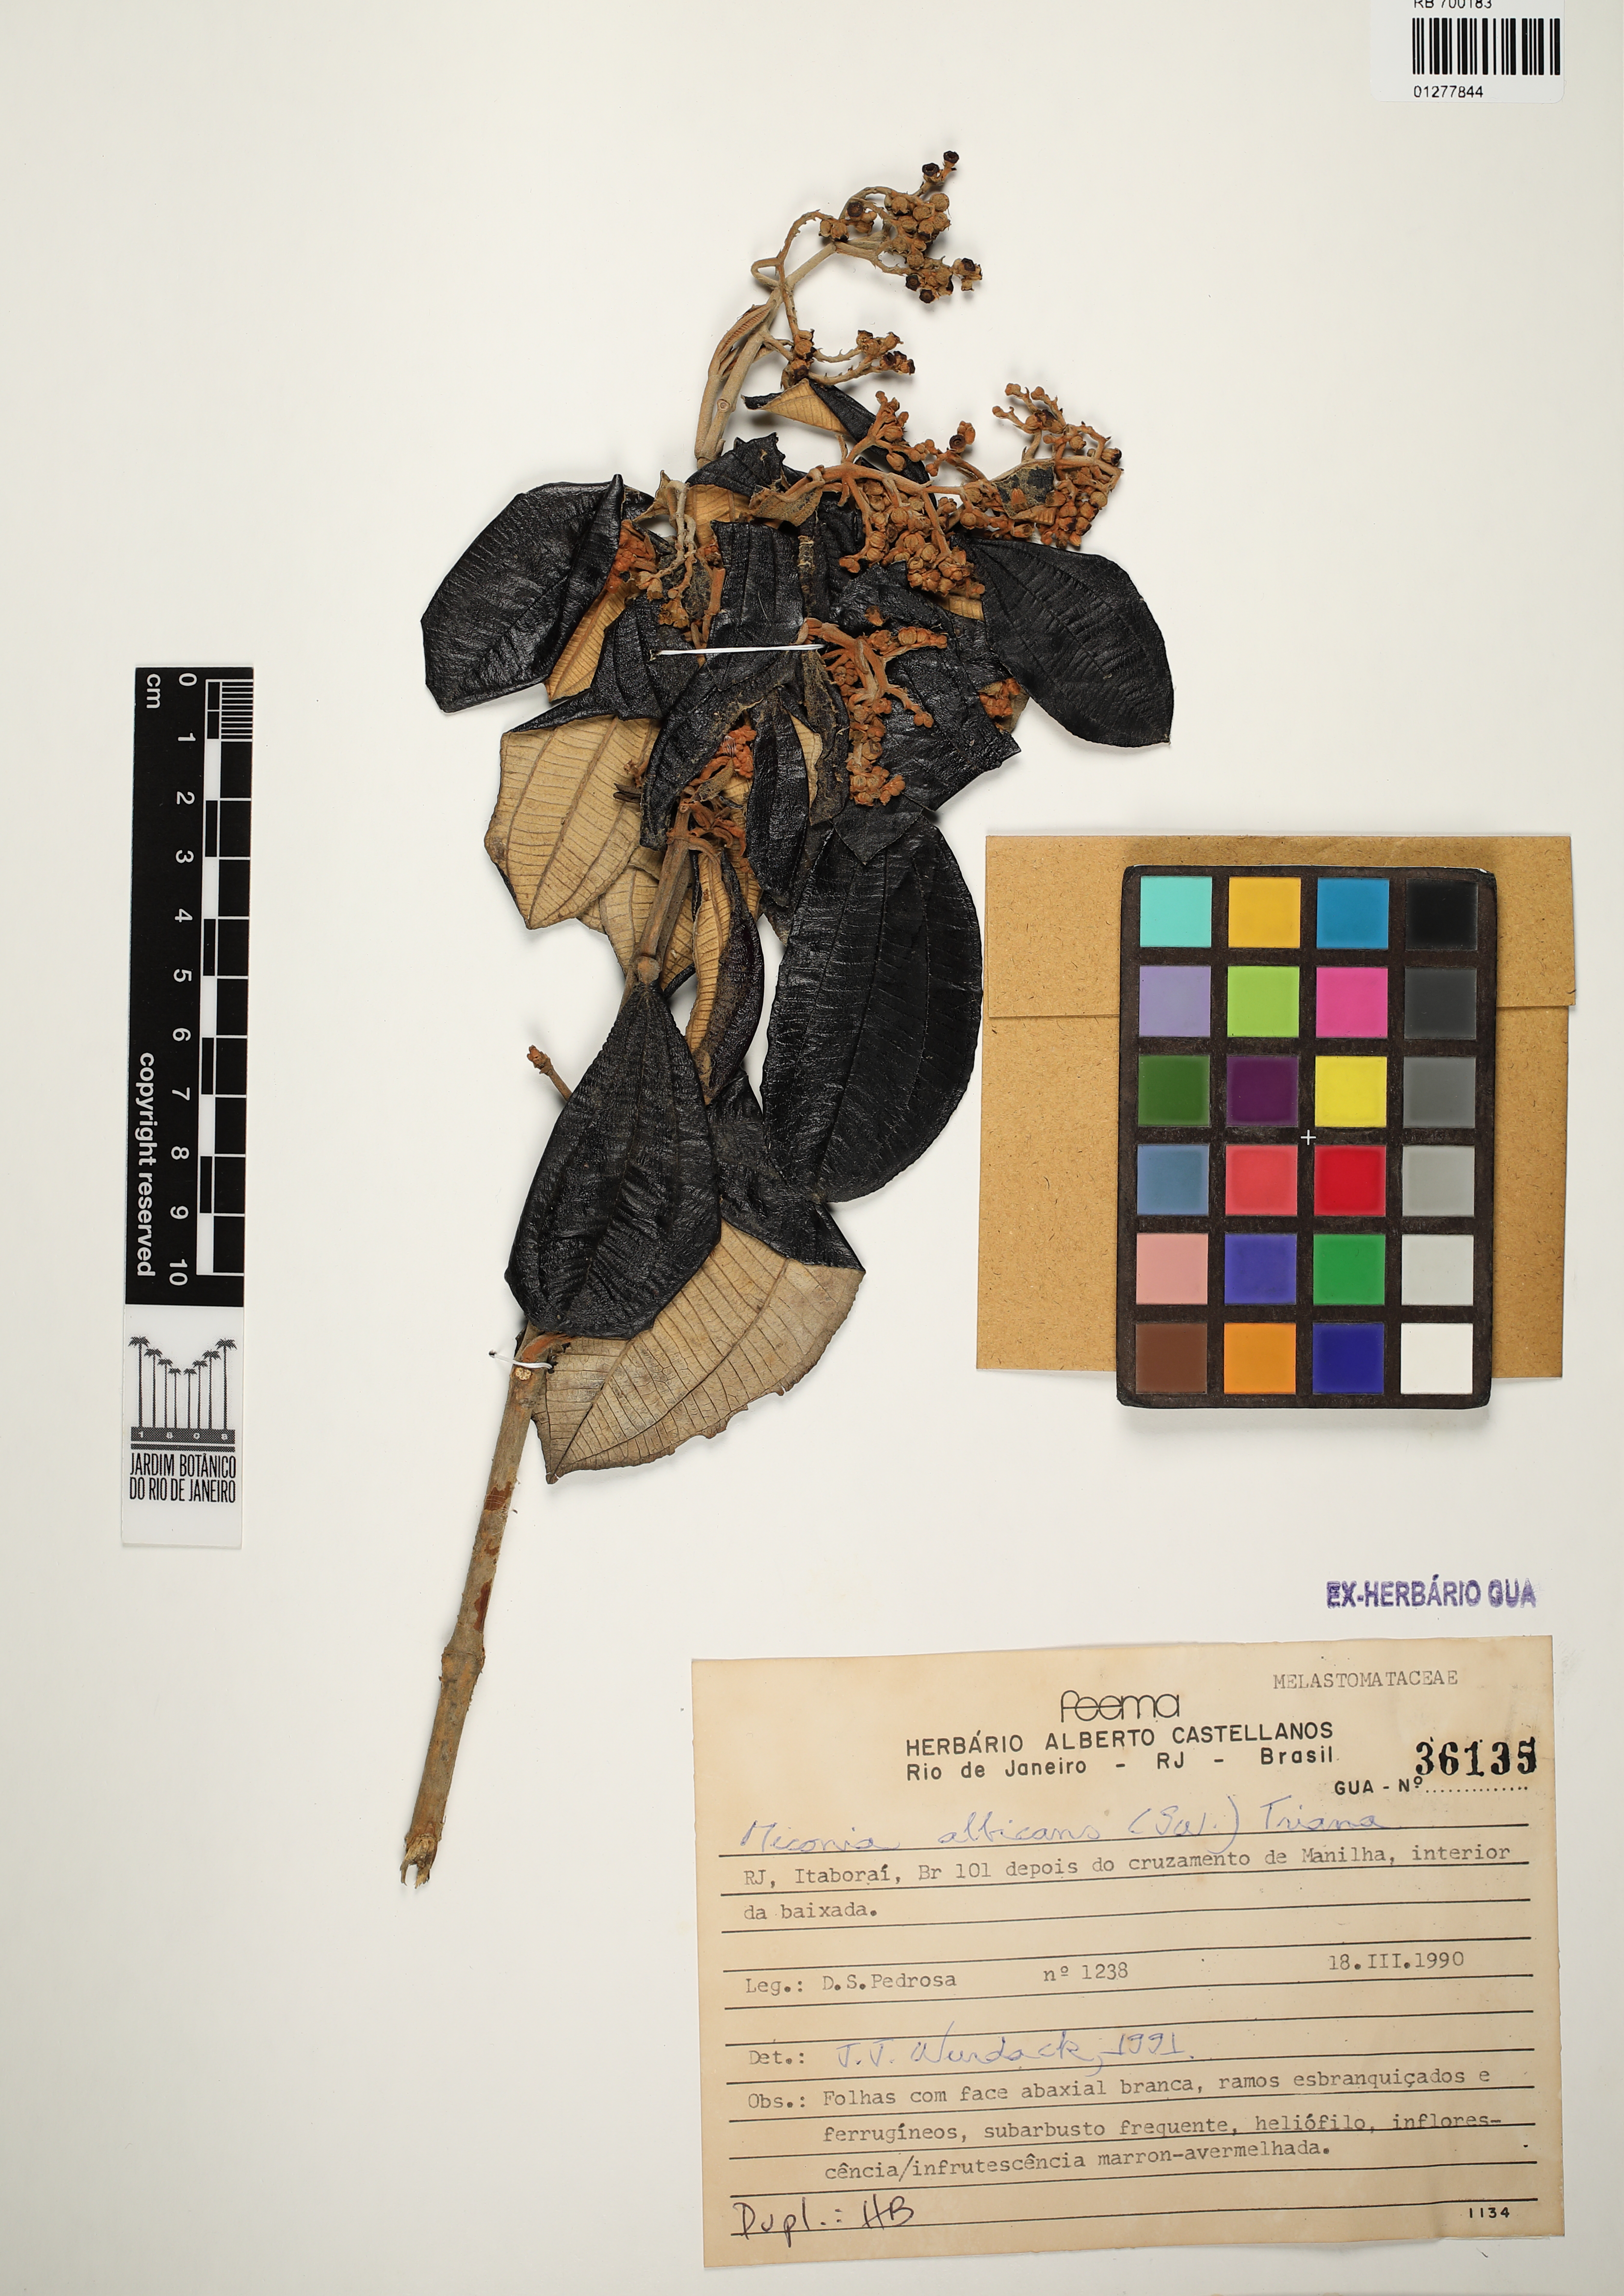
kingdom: Plantae
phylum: Tracheophyta
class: Magnoliopsida
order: Myrtales
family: Melastomataceae
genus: Miconia
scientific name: Miconia albicans
